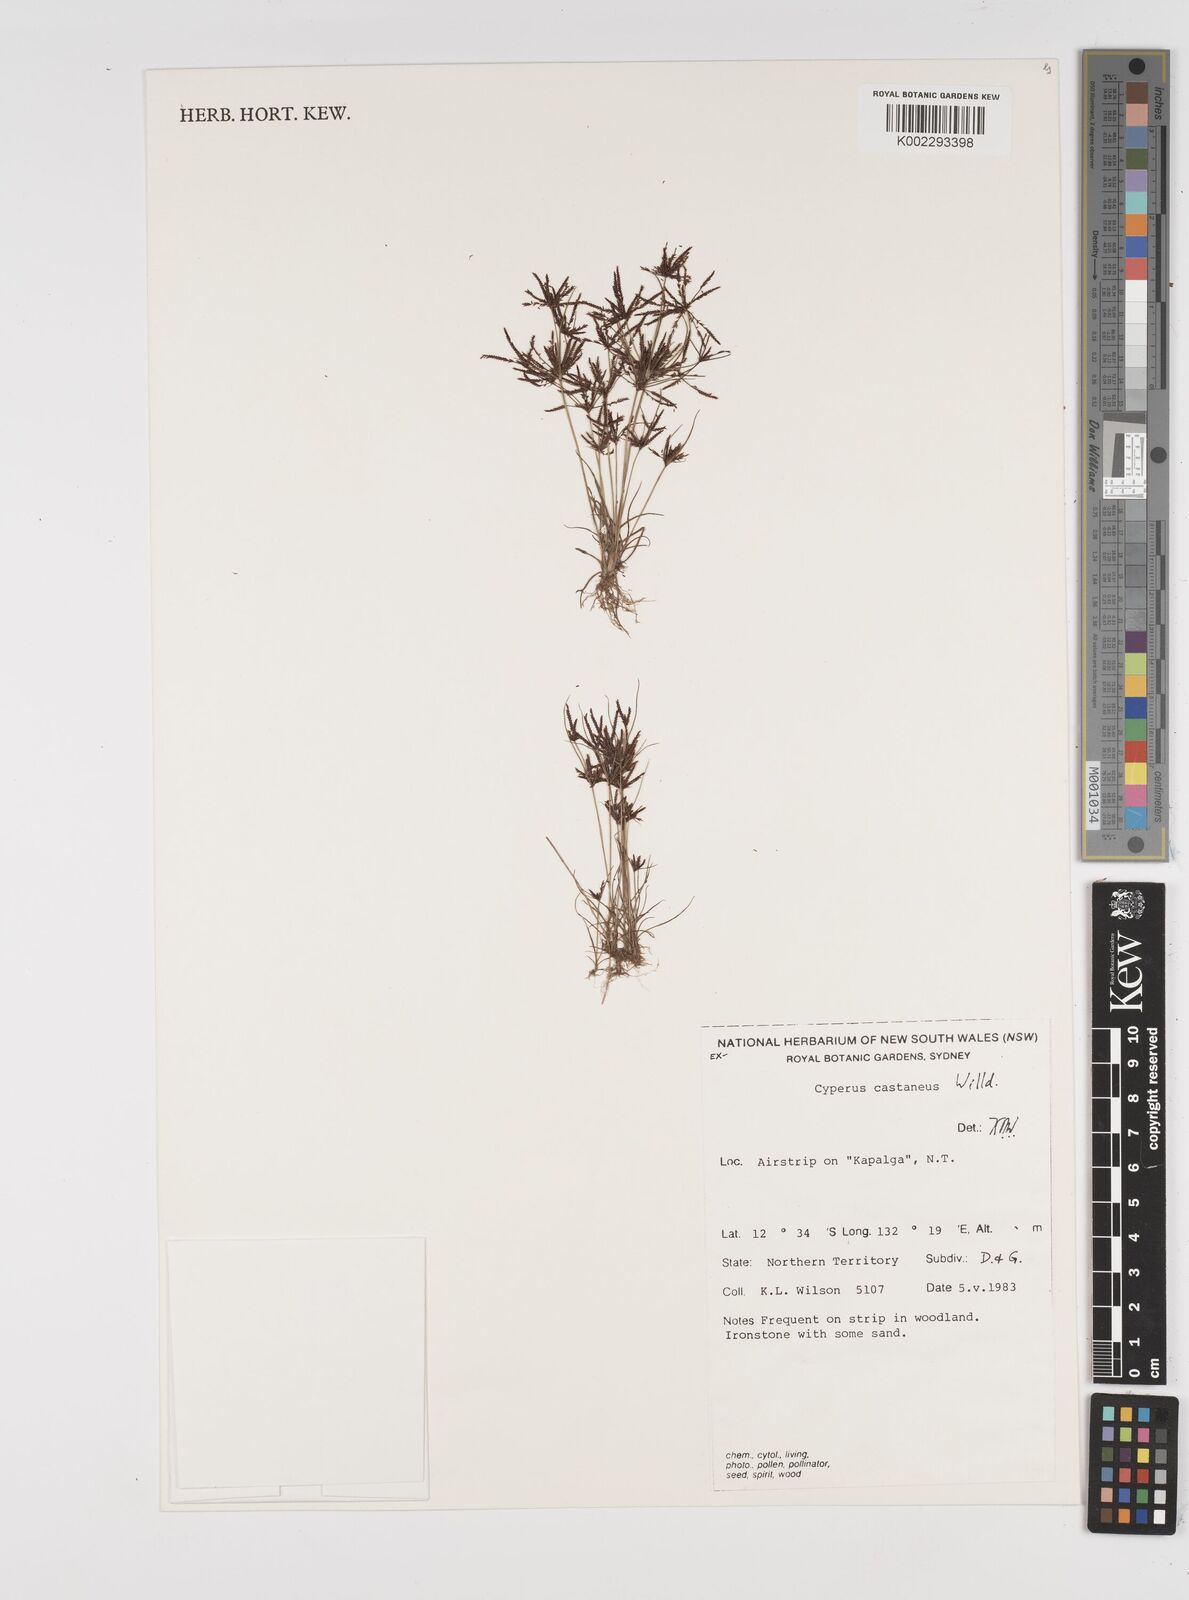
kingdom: Plantae
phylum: Tracheophyta
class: Liliopsida
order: Poales
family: Cyperaceae
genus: Cyperus
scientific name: Cyperus cuspidatus
